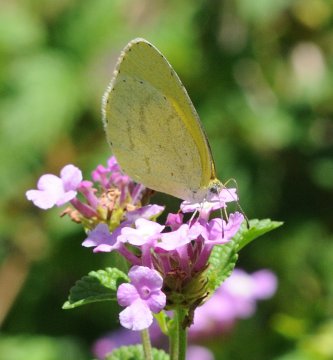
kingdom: Animalia
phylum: Arthropoda
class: Insecta
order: Lepidoptera
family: Pieridae
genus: Eurema
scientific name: Eurema brigitta
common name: Broad-bordered Grass Yellow
